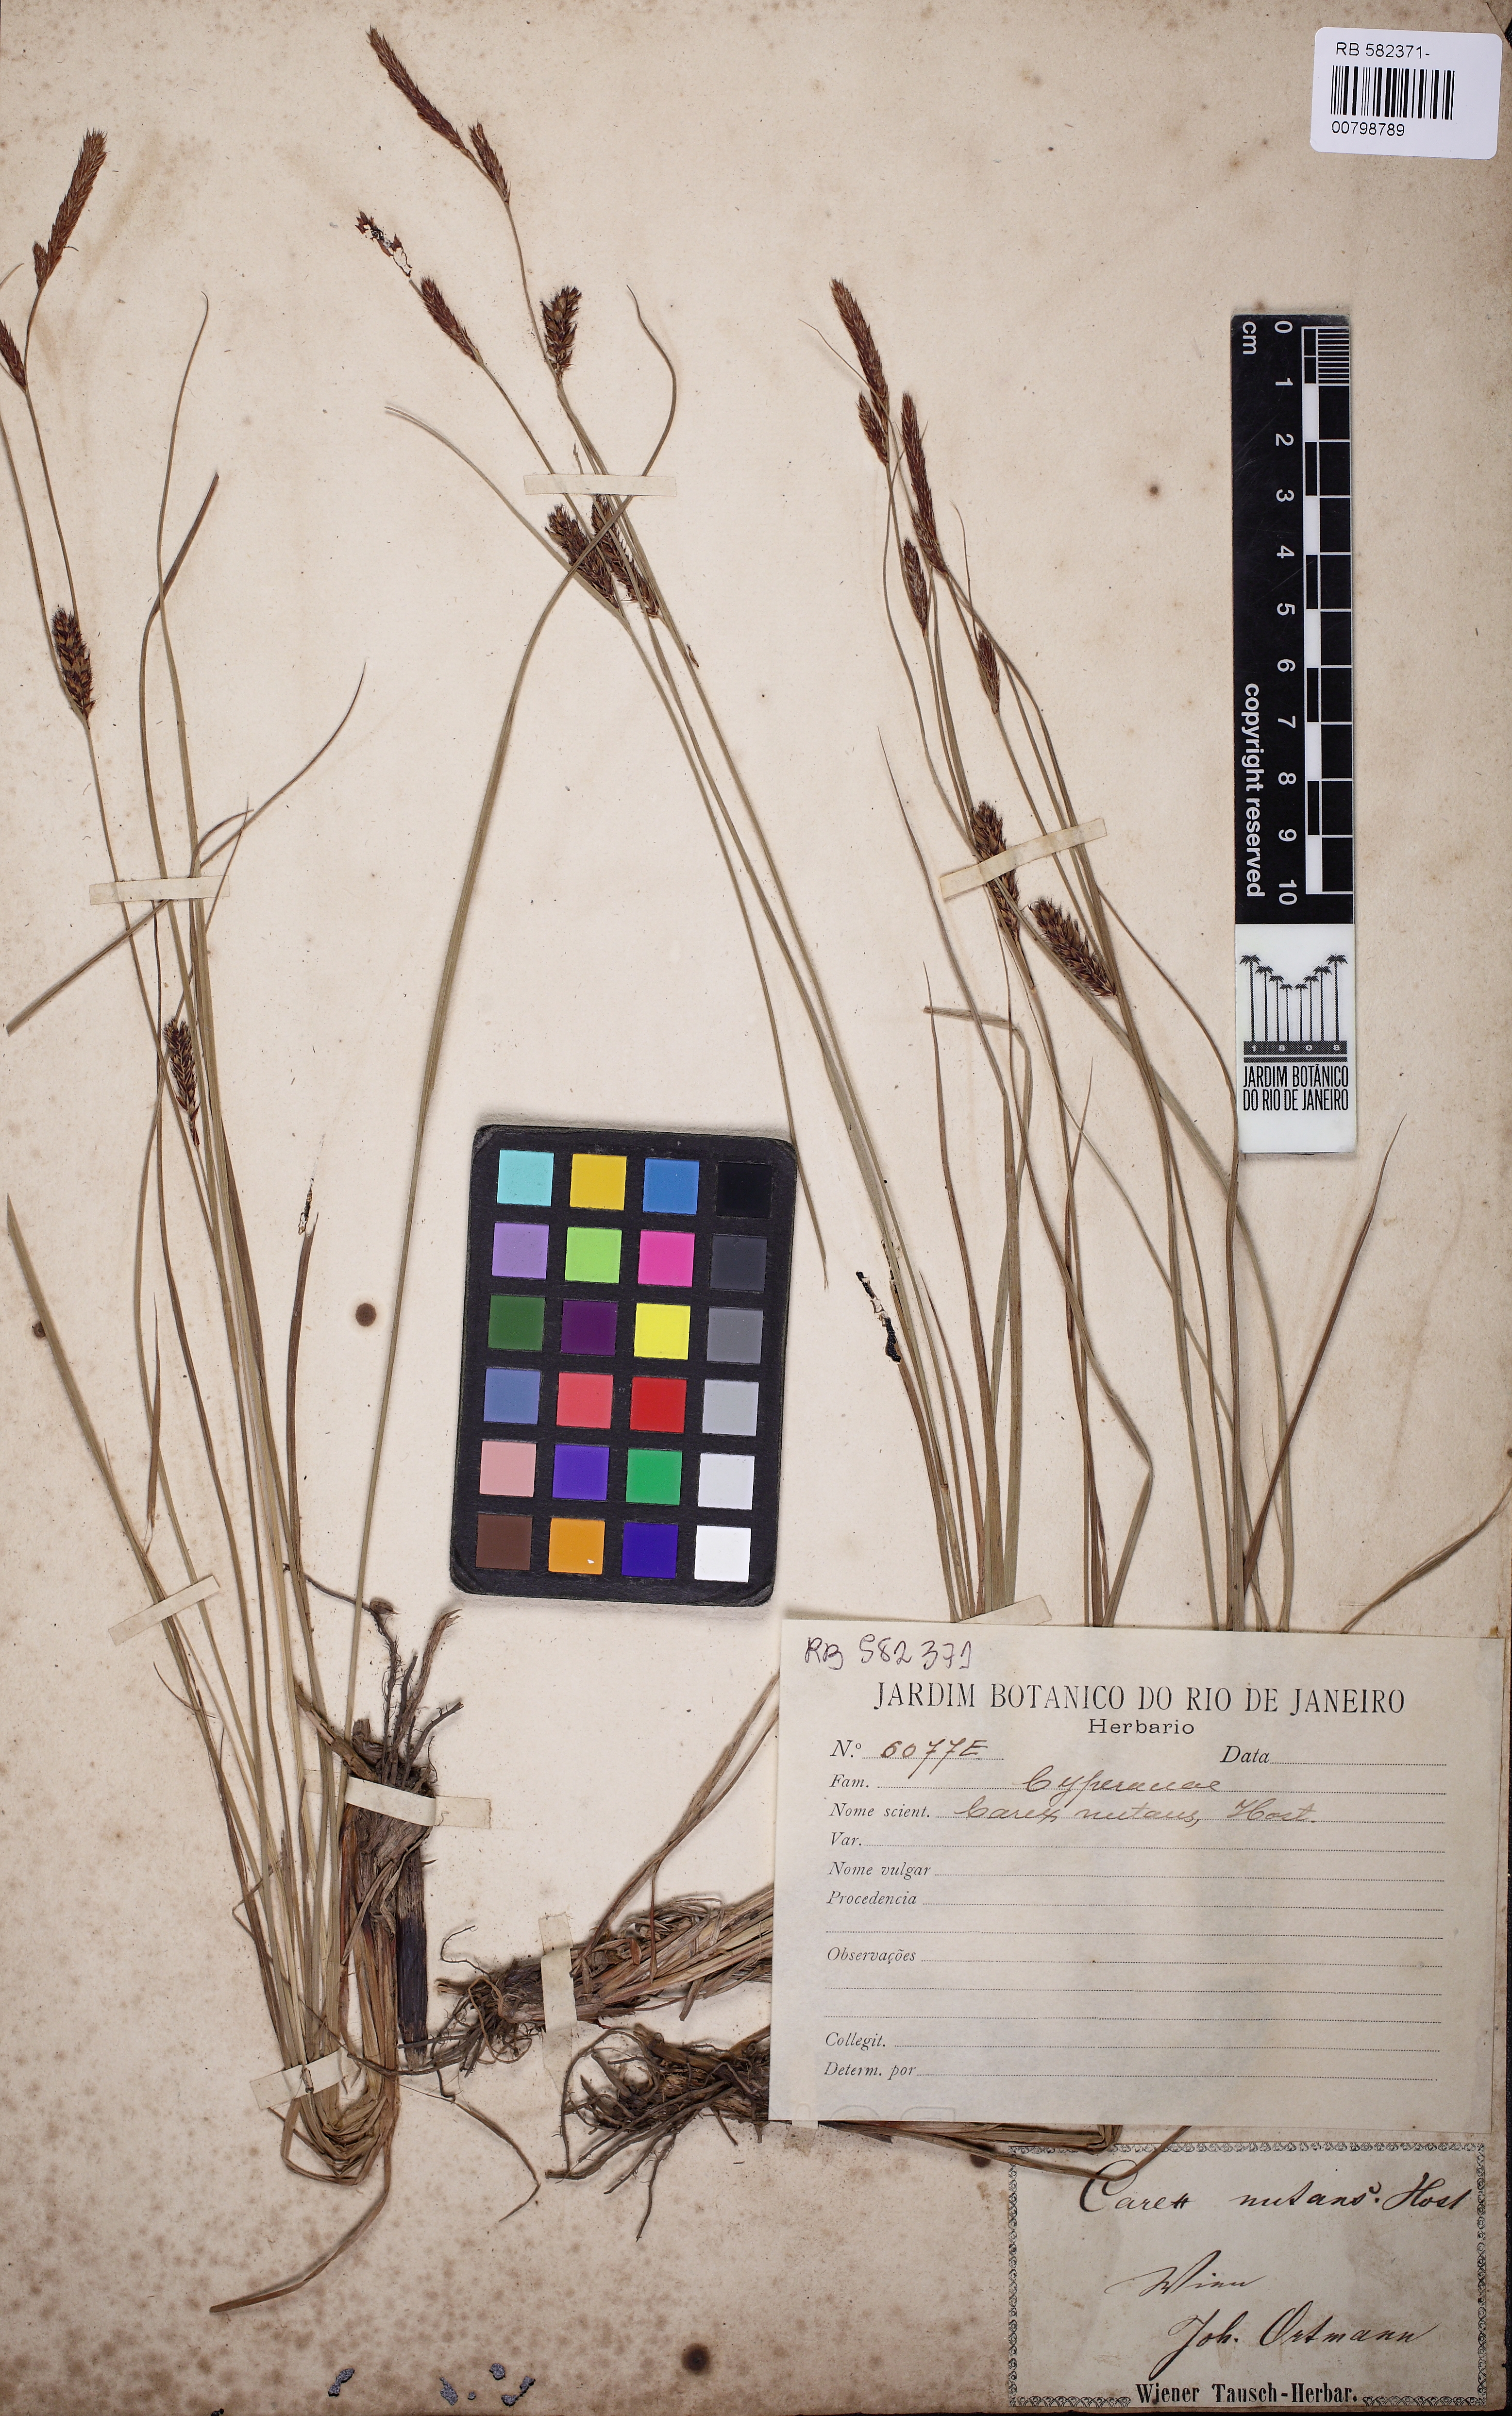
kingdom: Plantae
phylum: Tracheophyta
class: Liliopsida
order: Poales
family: Cyperaceae
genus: Carex
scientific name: Carex melanostachya
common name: Black-spiked sedge
